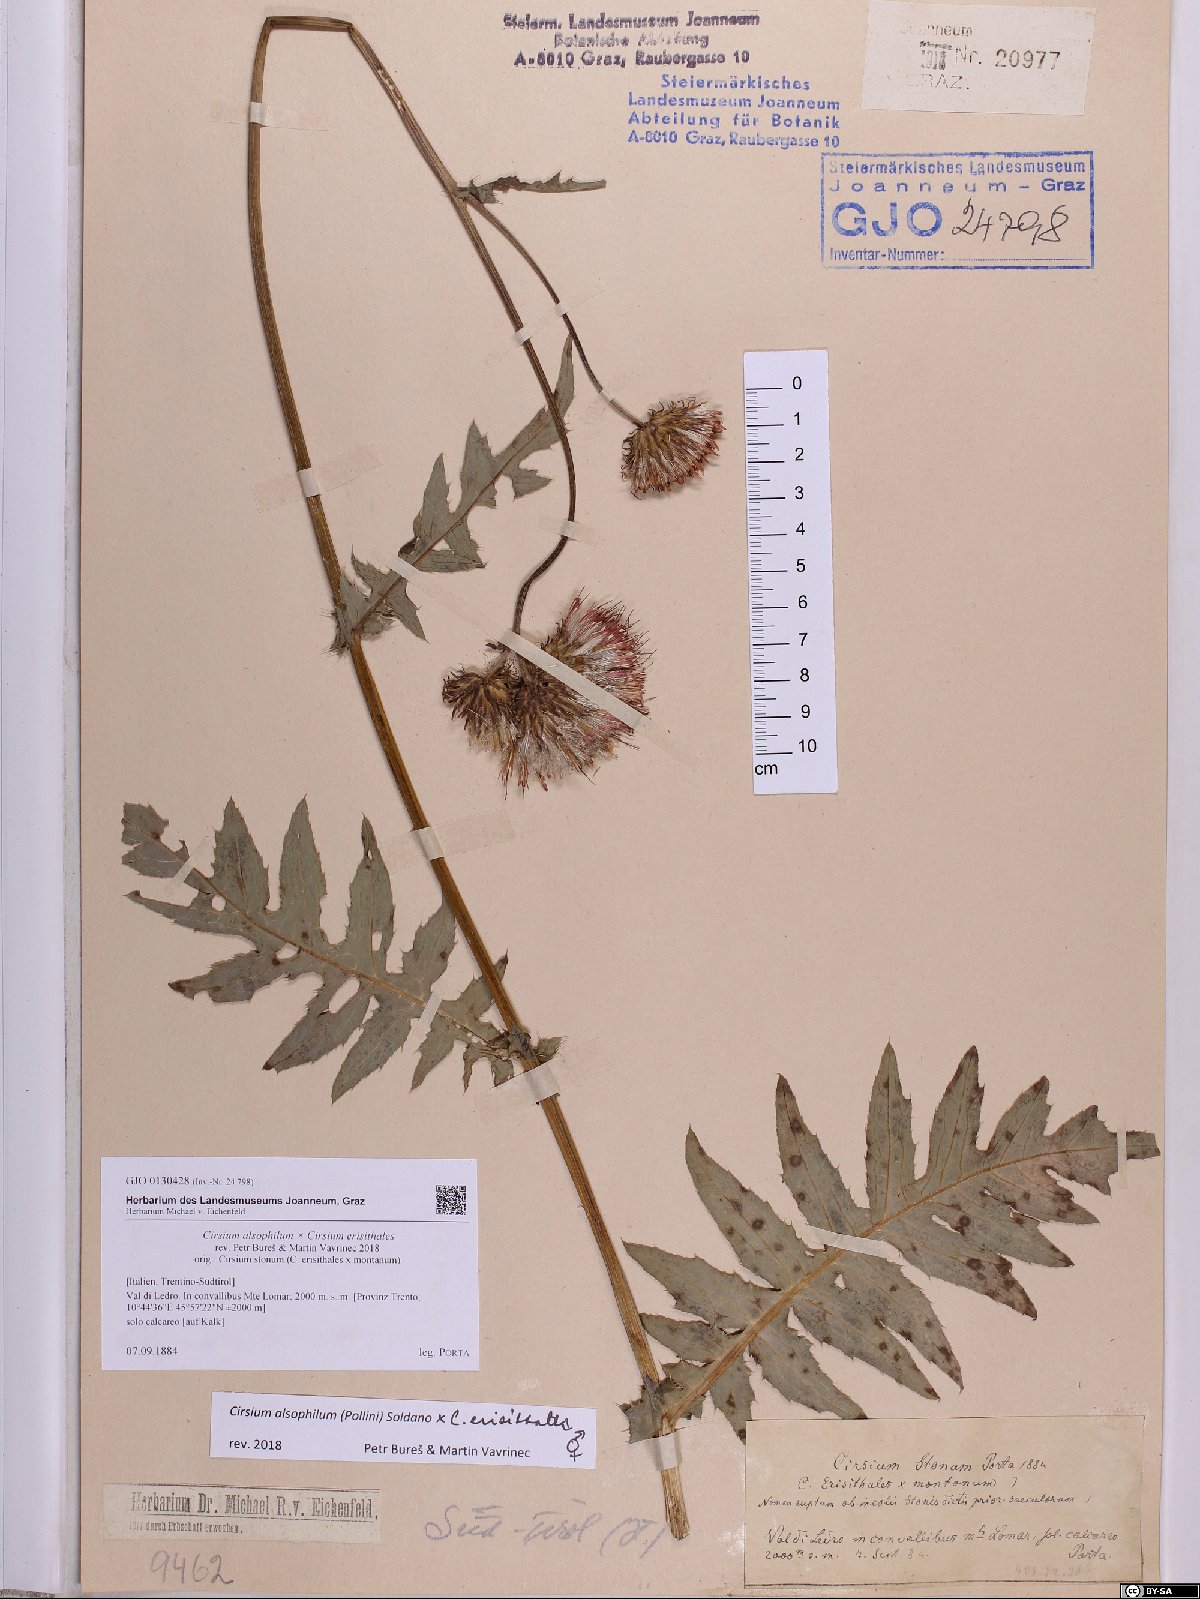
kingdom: Plantae
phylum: Tracheophyta
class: Magnoliopsida
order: Asterales
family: Asteraceae
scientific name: Asteraceae
